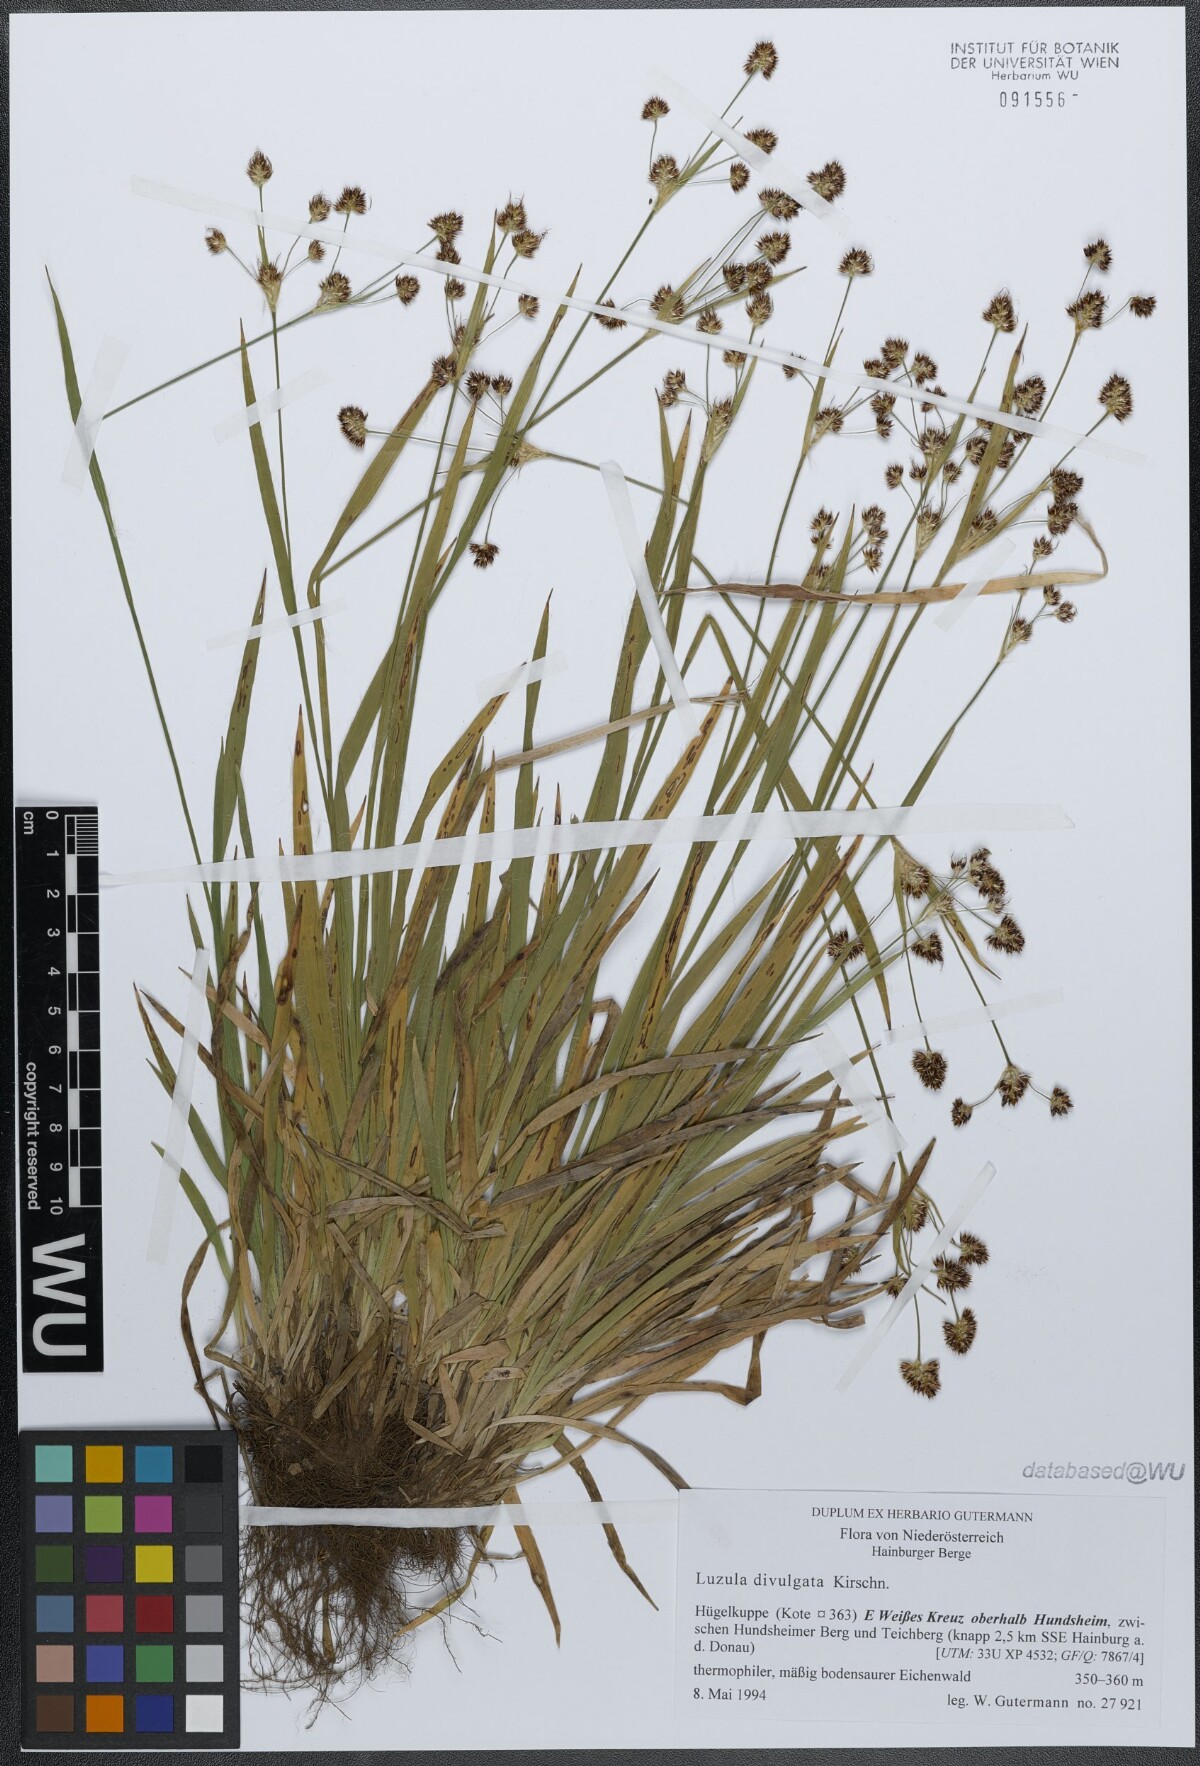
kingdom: Plantae
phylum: Tracheophyta
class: Liliopsida
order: Poales
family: Juncaceae
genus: Luzula
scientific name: Luzula divulgata
